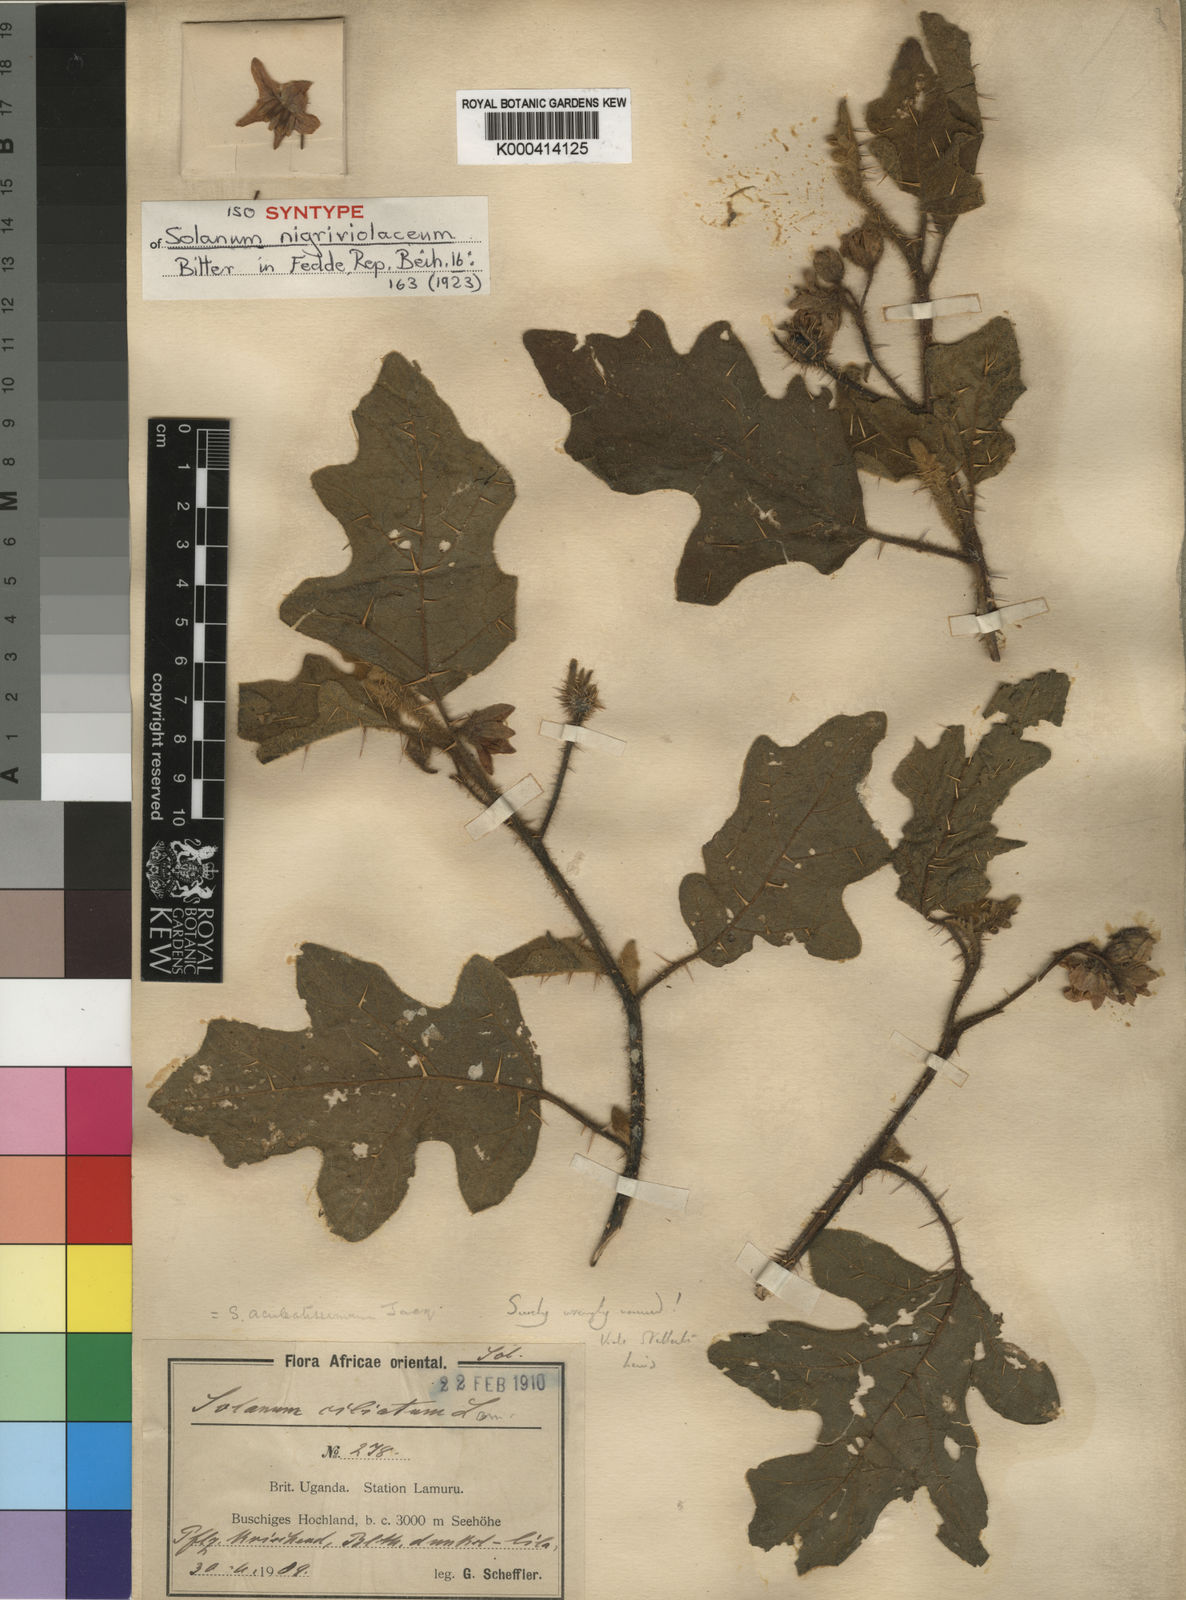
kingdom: Plantae
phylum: Tracheophyta
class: Magnoliopsida
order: Solanales
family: Solanaceae
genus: Solanum
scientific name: Solanum nigriviolaceum
